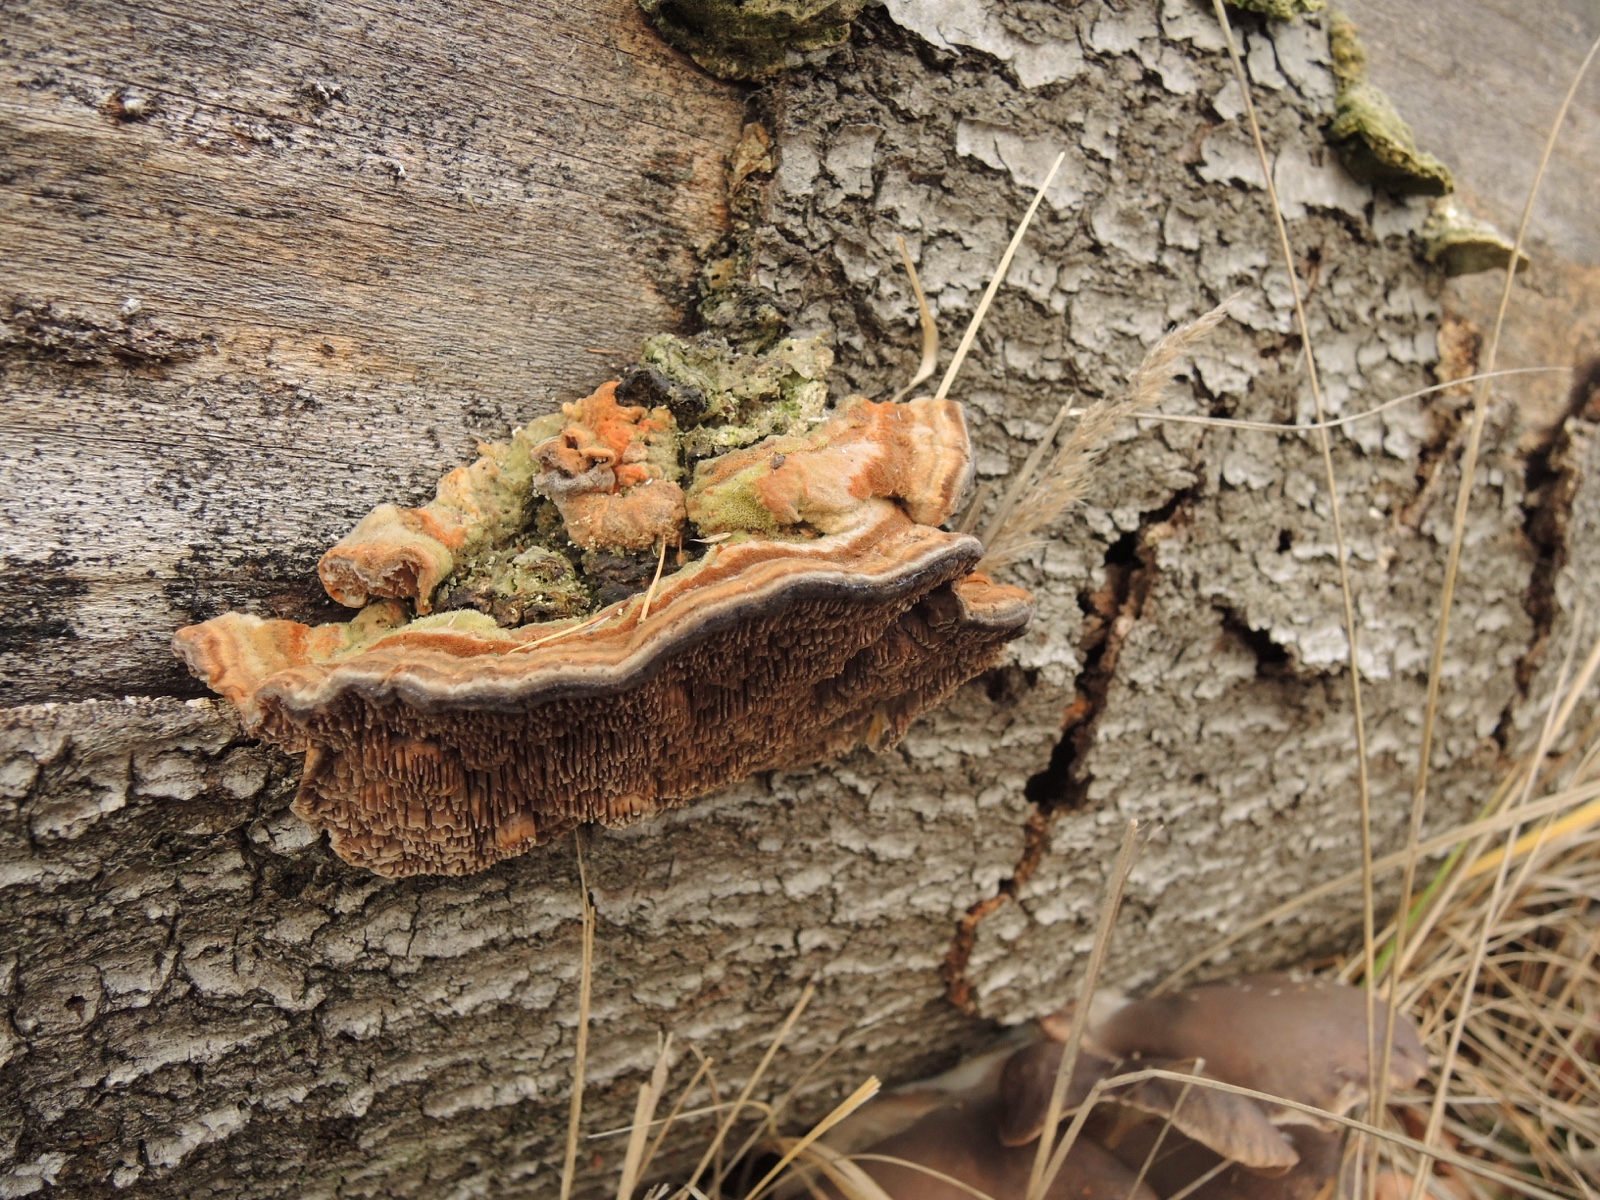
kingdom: Fungi
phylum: Basidiomycota
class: Agaricomycetes
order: Polyporales
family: Polyporaceae
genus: Lenzites
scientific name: Lenzites betulinus
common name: birke-læderporesvamp
